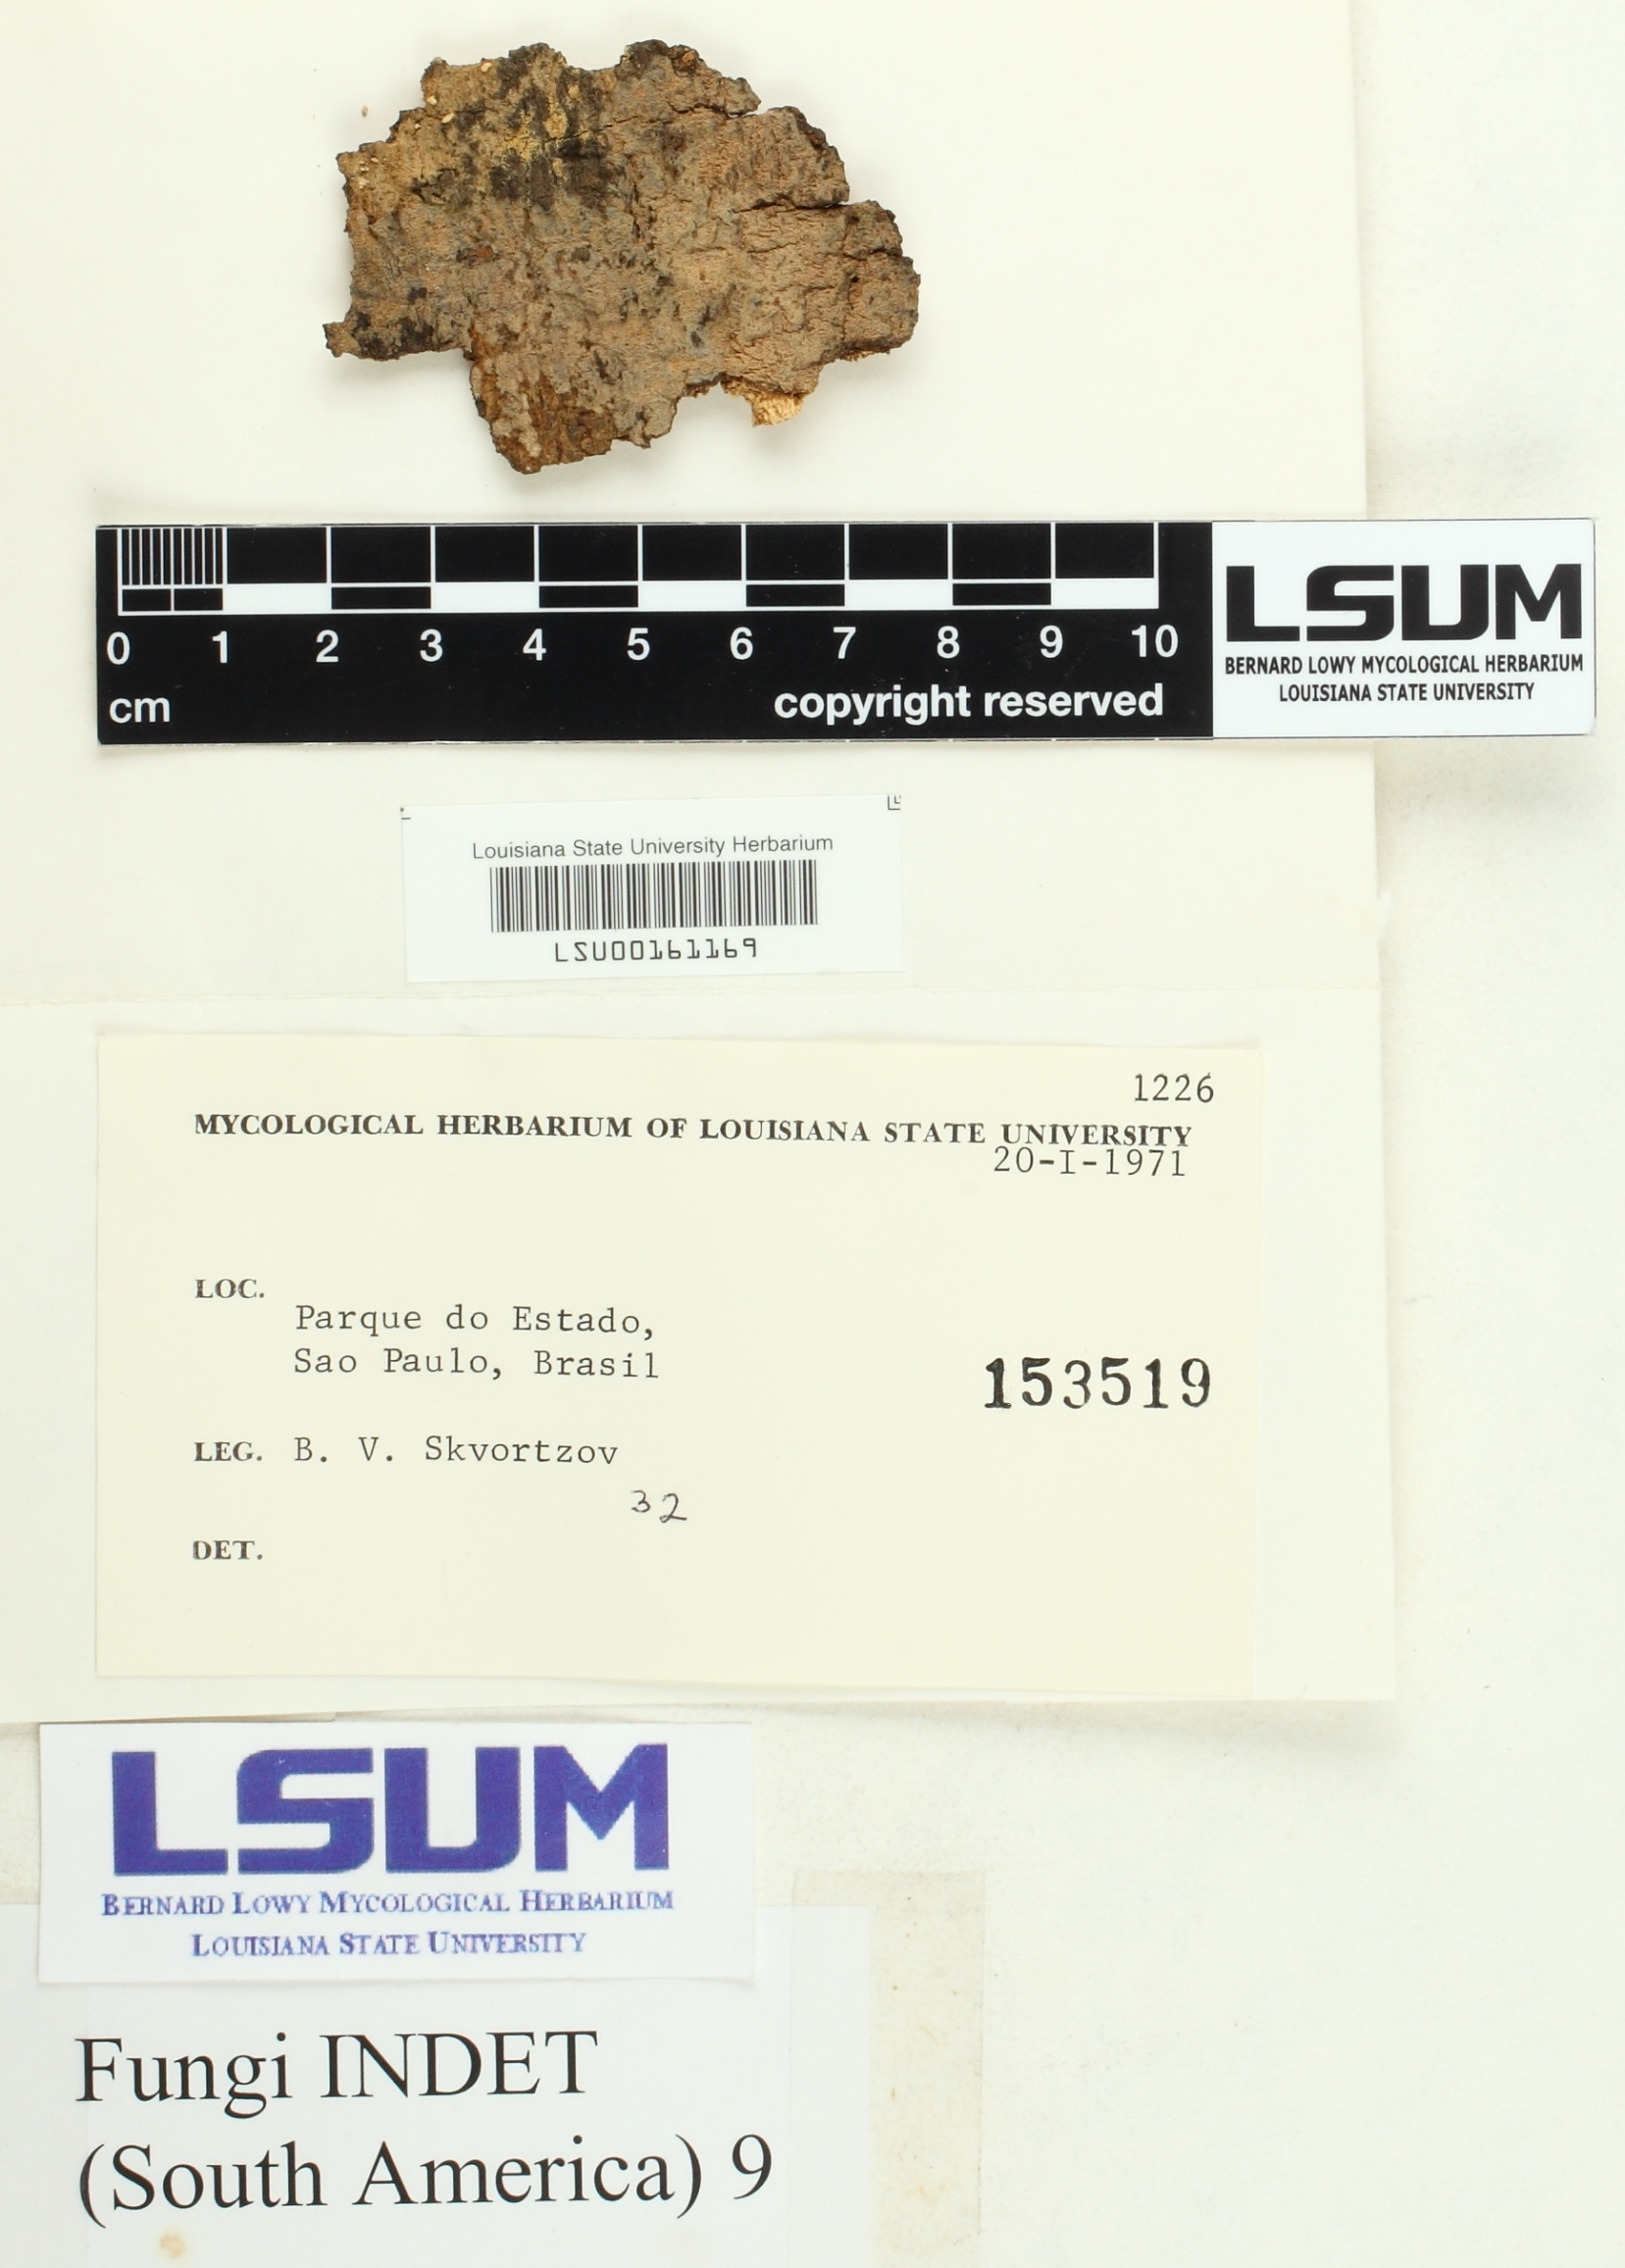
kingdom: Fungi
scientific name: Fungi
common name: Fungi
